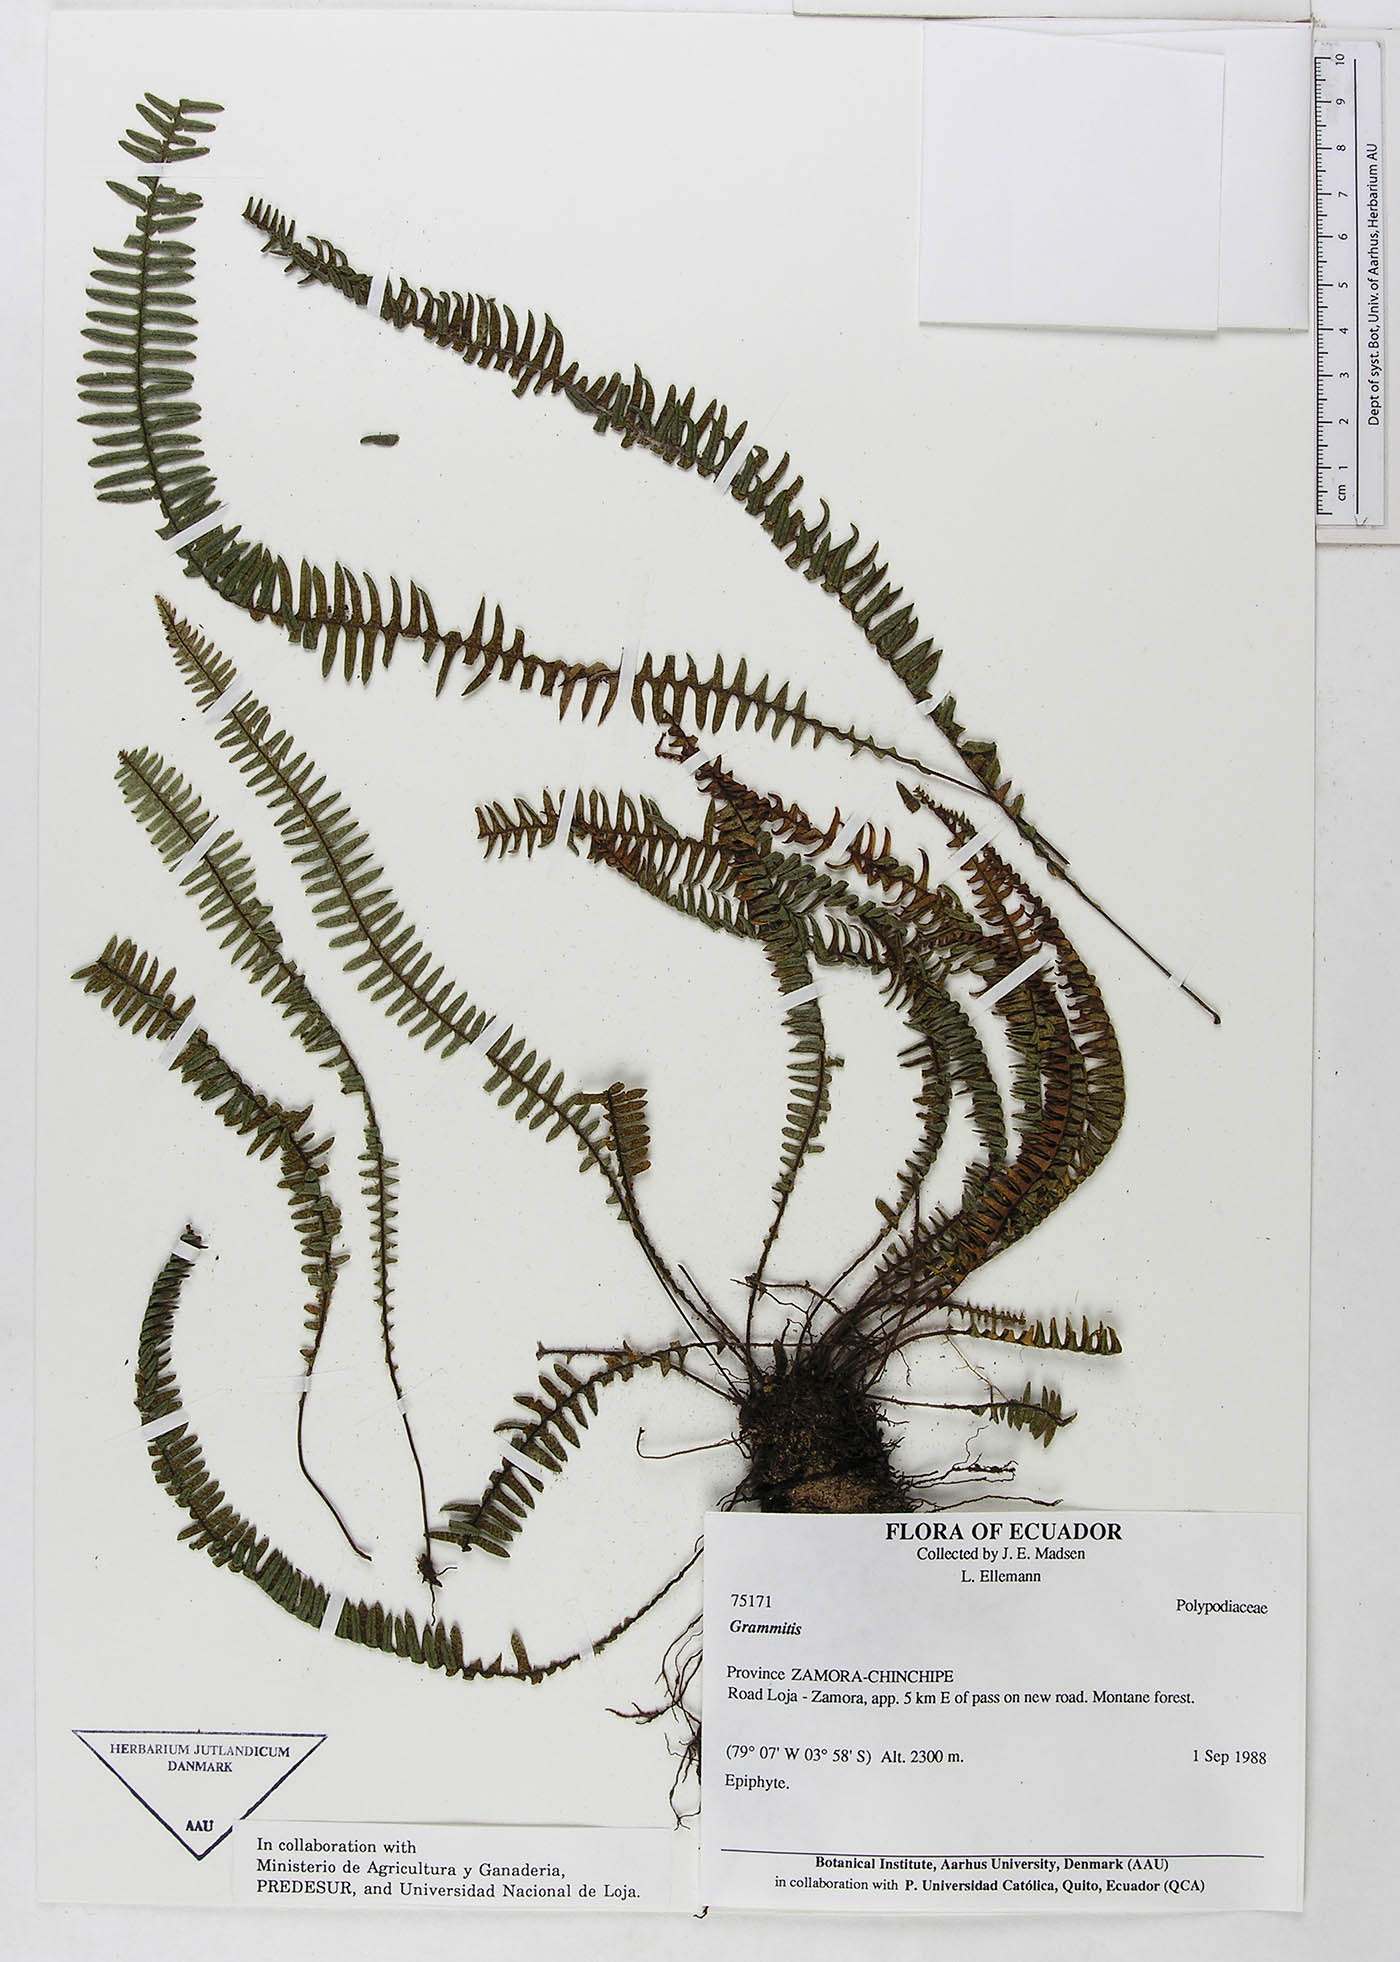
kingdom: Plantae
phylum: Tracheophyta
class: Polypodiopsida
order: Polypodiales
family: Polypodiaceae
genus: Melpomene
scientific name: Melpomene
